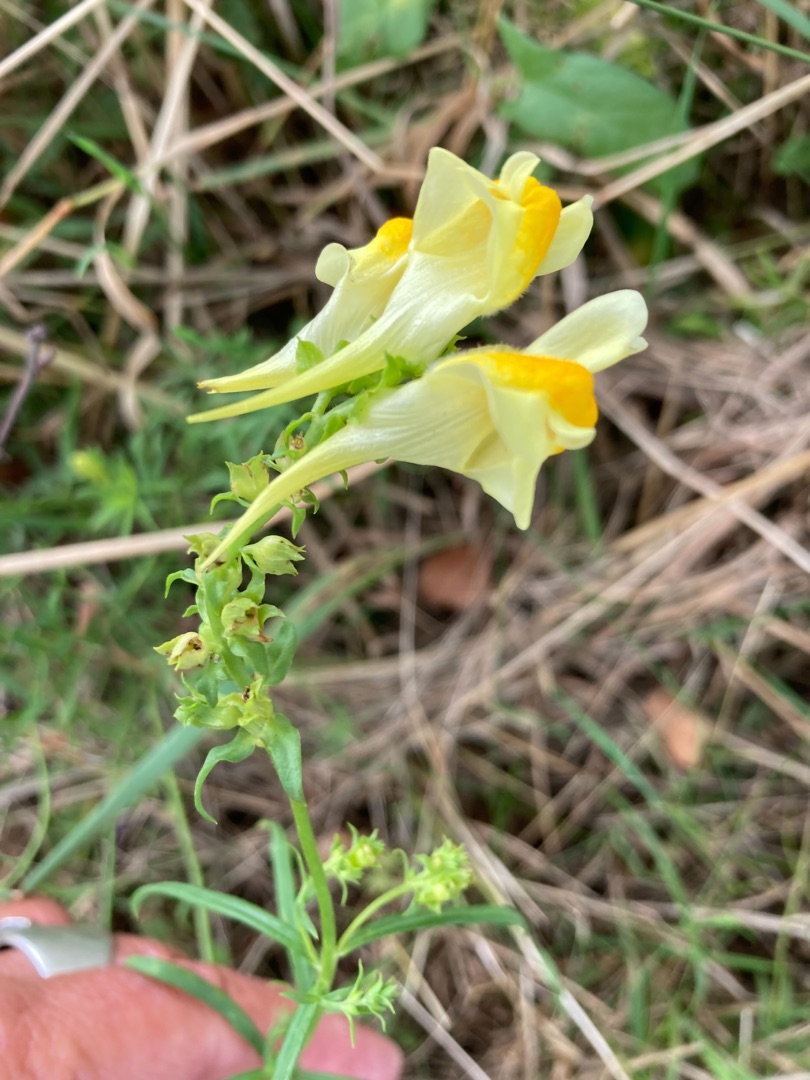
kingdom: Plantae
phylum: Tracheophyta
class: Magnoliopsida
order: Lamiales
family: Plantaginaceae
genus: Linaria
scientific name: Linaria vulgaris
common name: Almindelig torskemund
